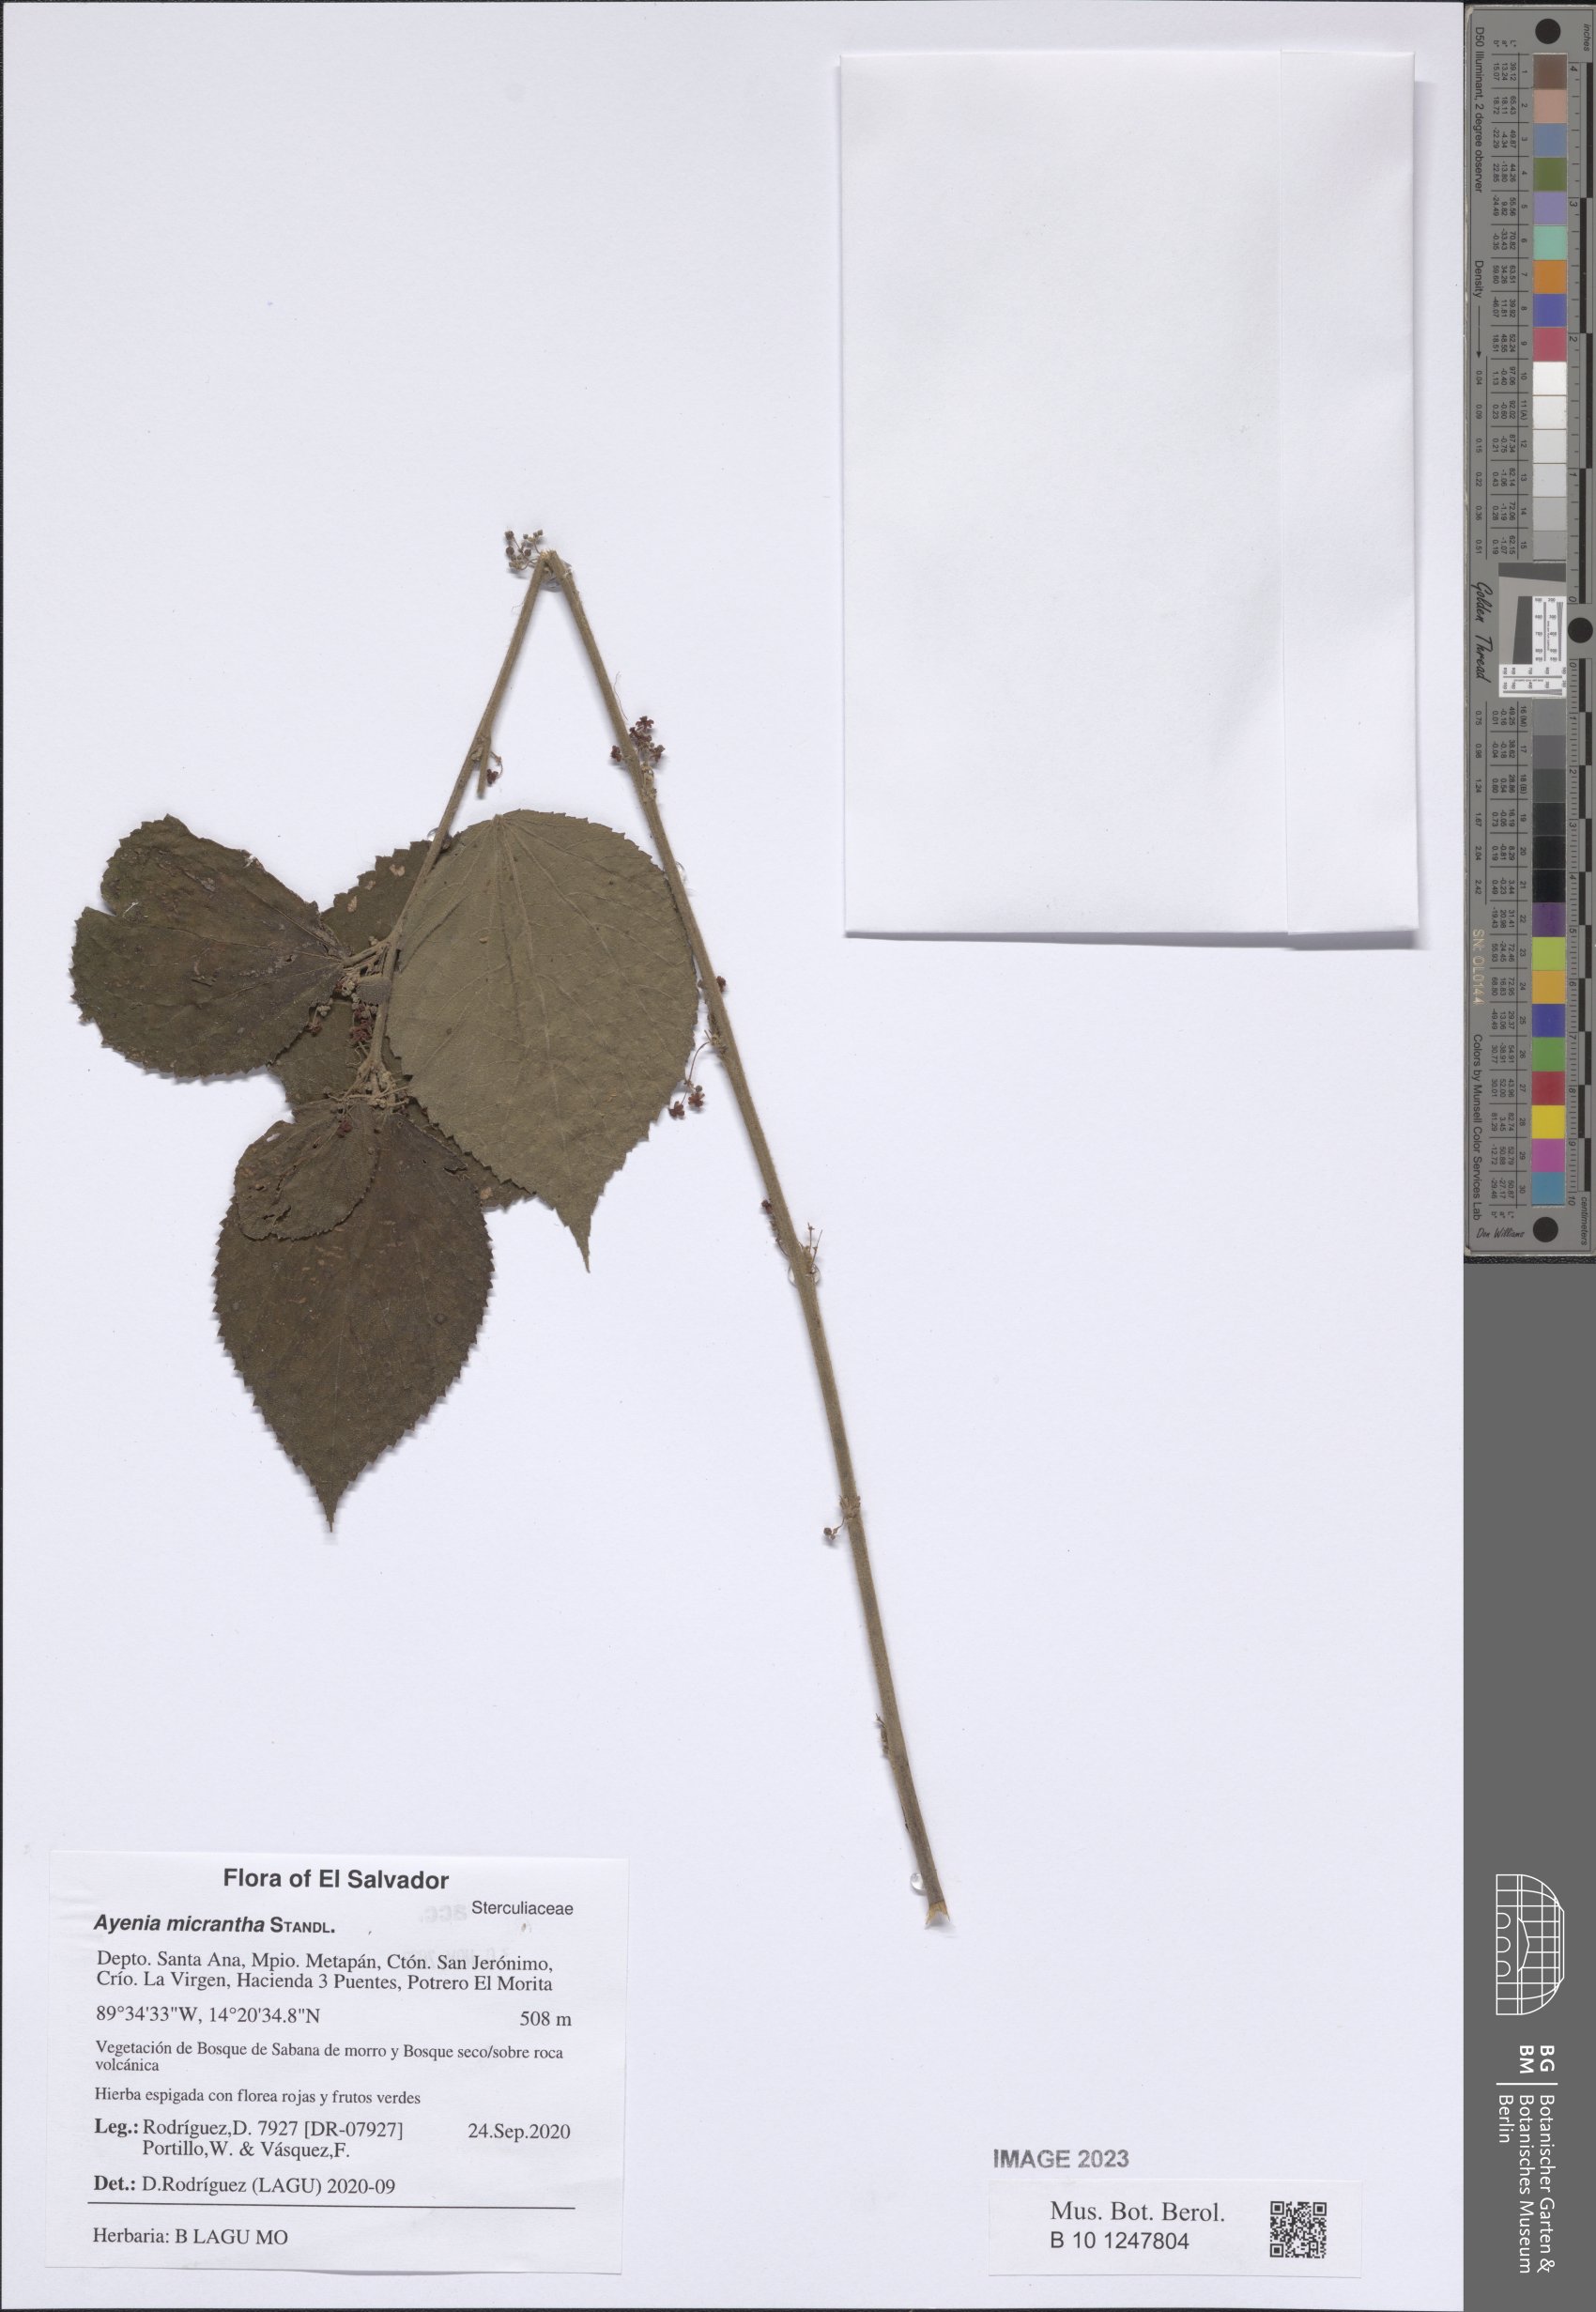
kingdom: Plantae
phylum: Tracheophyta
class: Magnoliopsida
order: Malvales
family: Malvaceae
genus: Ayenia
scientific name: Ayenia micrantha
